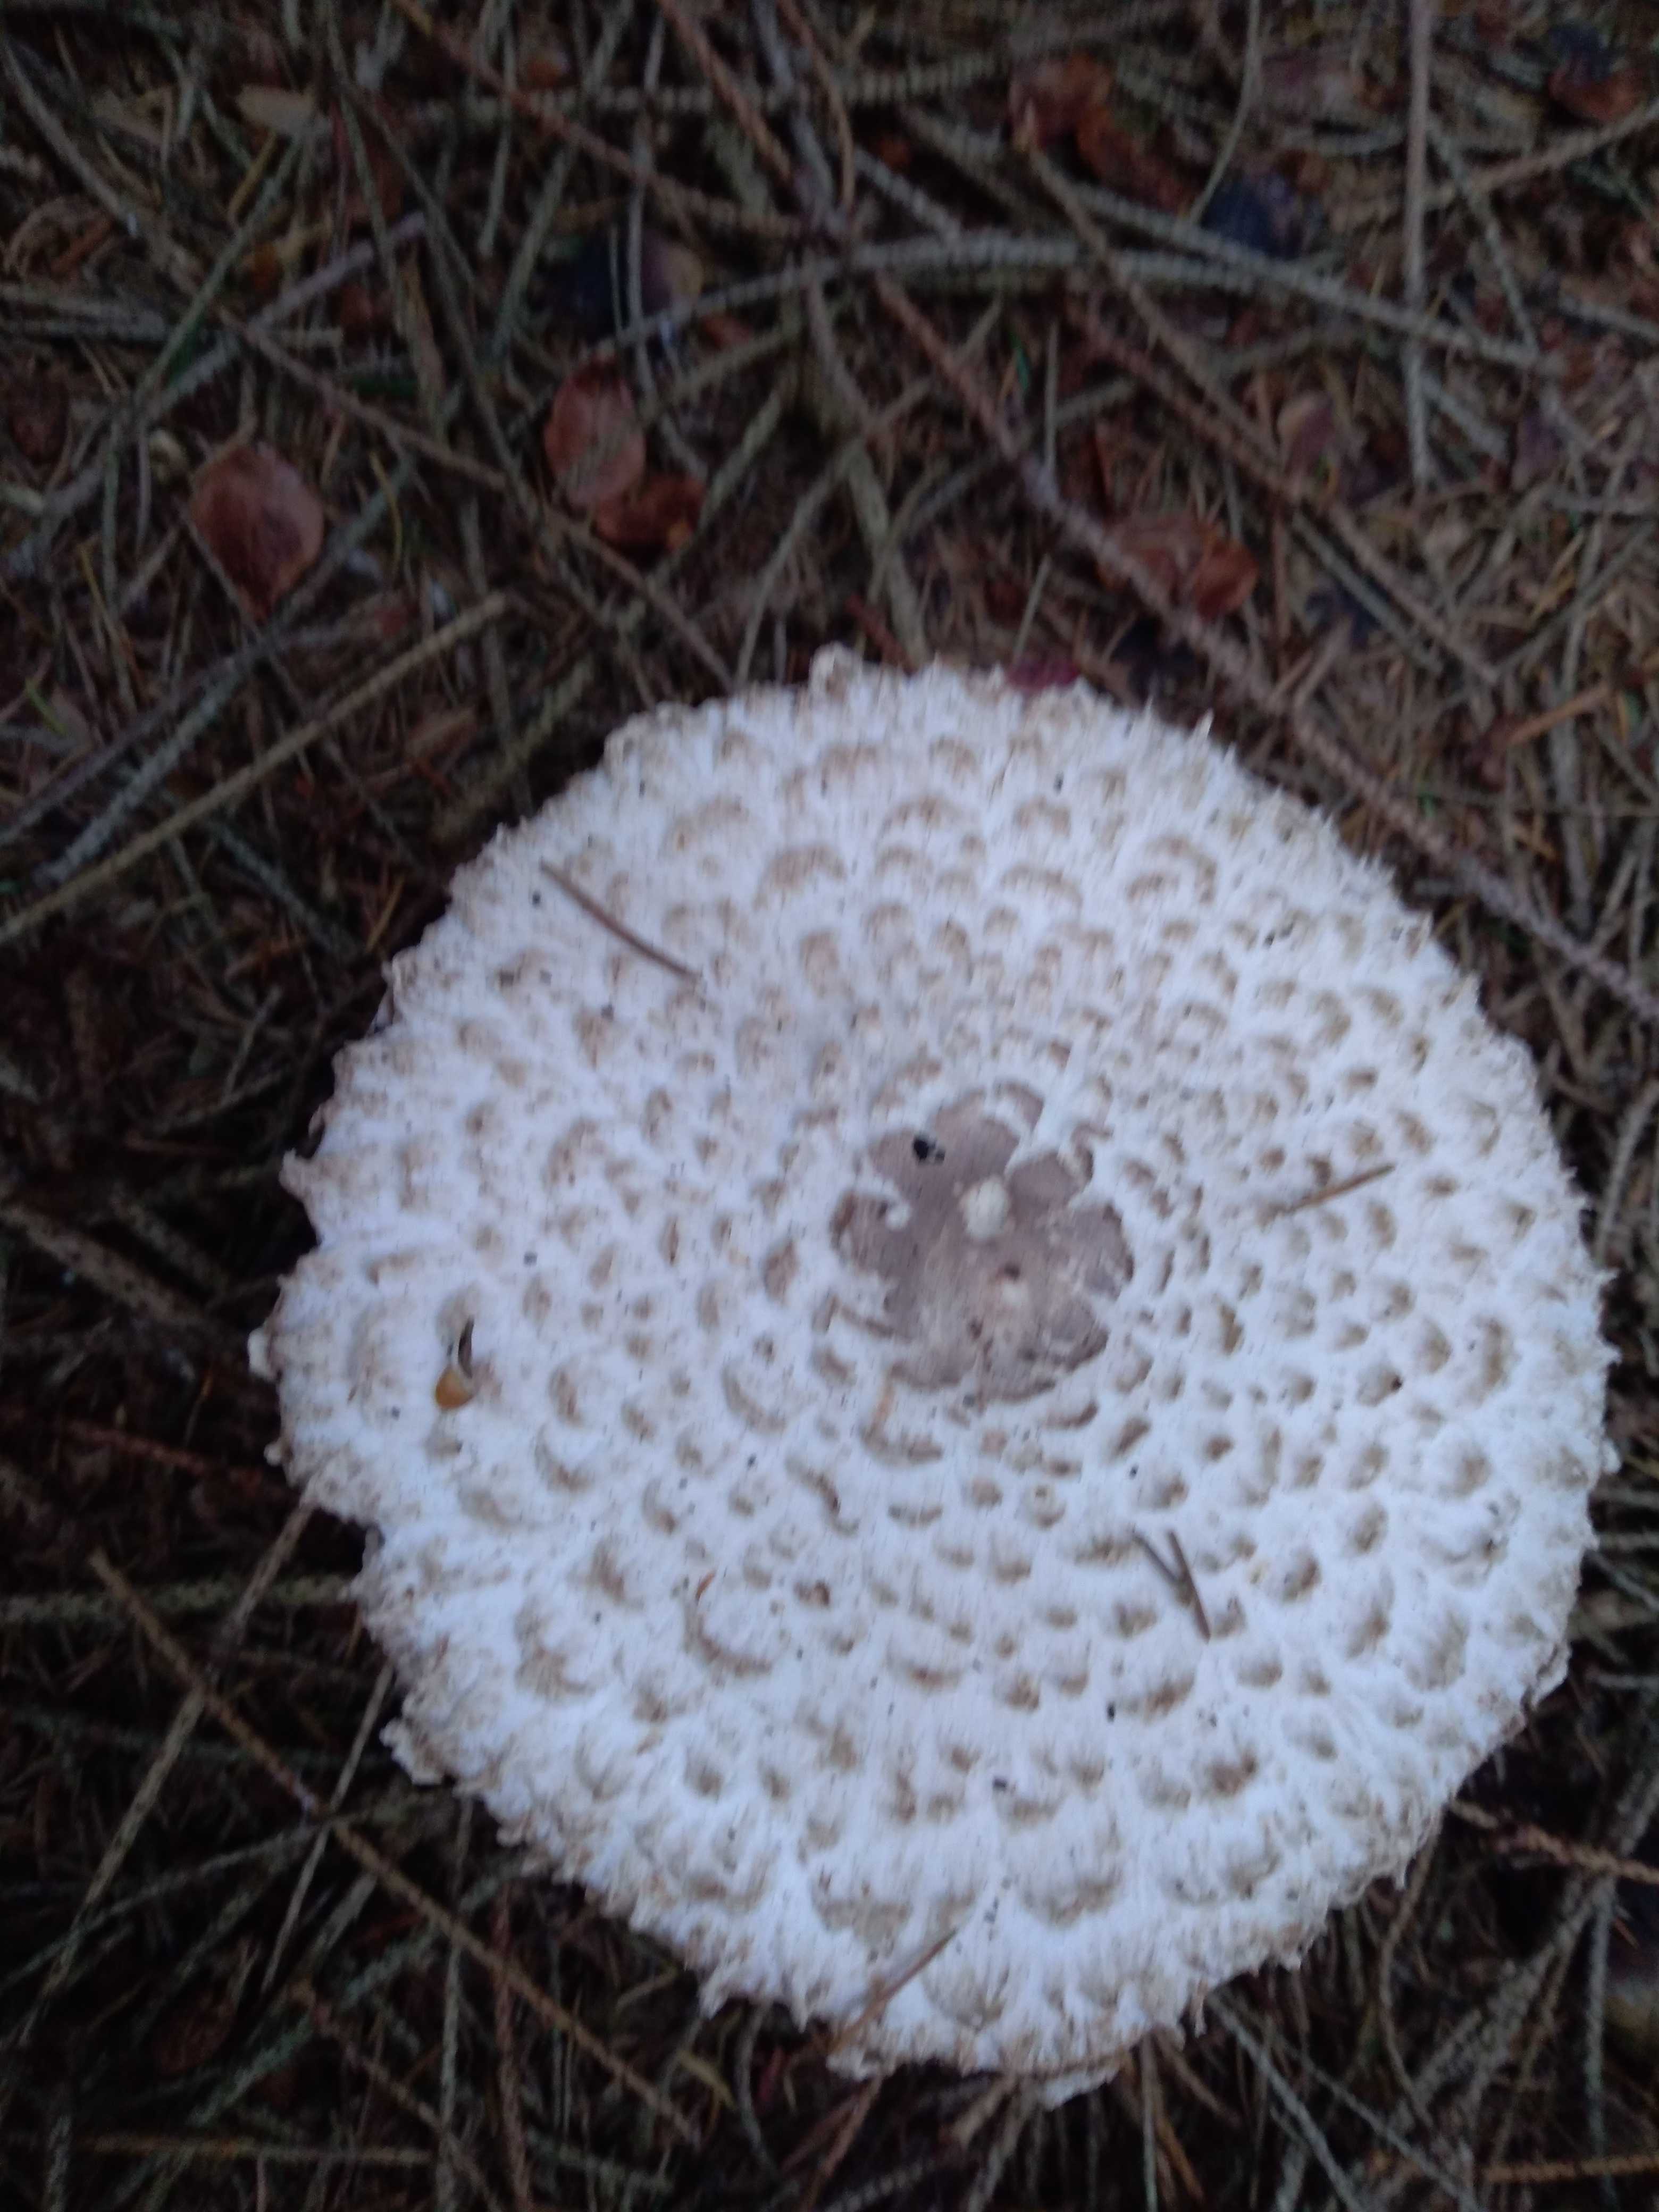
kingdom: Fungi
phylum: Basidiomycota
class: Agaricomycetes
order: Agaricales
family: Agaricaceae
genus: Leucoagaricus
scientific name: Leucoagaricus nympharum
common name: gran-silkehat
